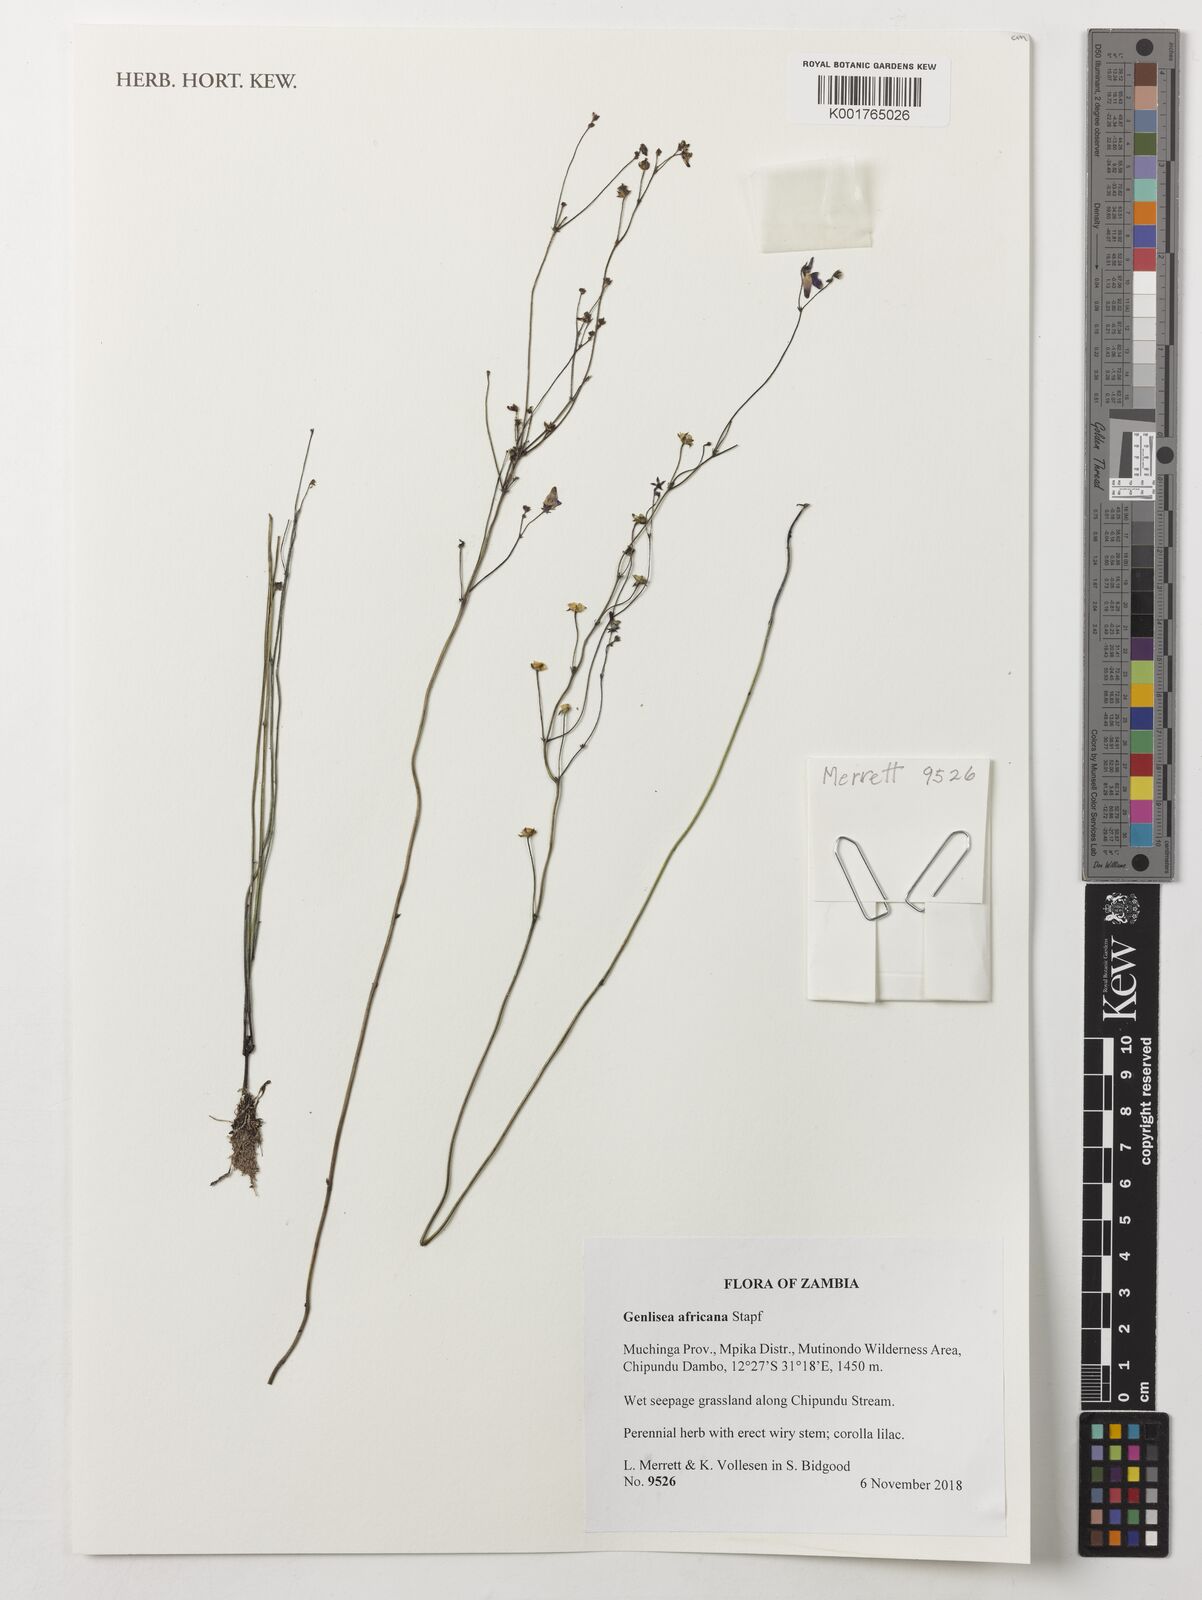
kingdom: Plantae
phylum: Tracheophyta
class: Magnoliopsida
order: Lamiales
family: Lentibulariaceae
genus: Genlisea
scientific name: Genlisea stapfii
